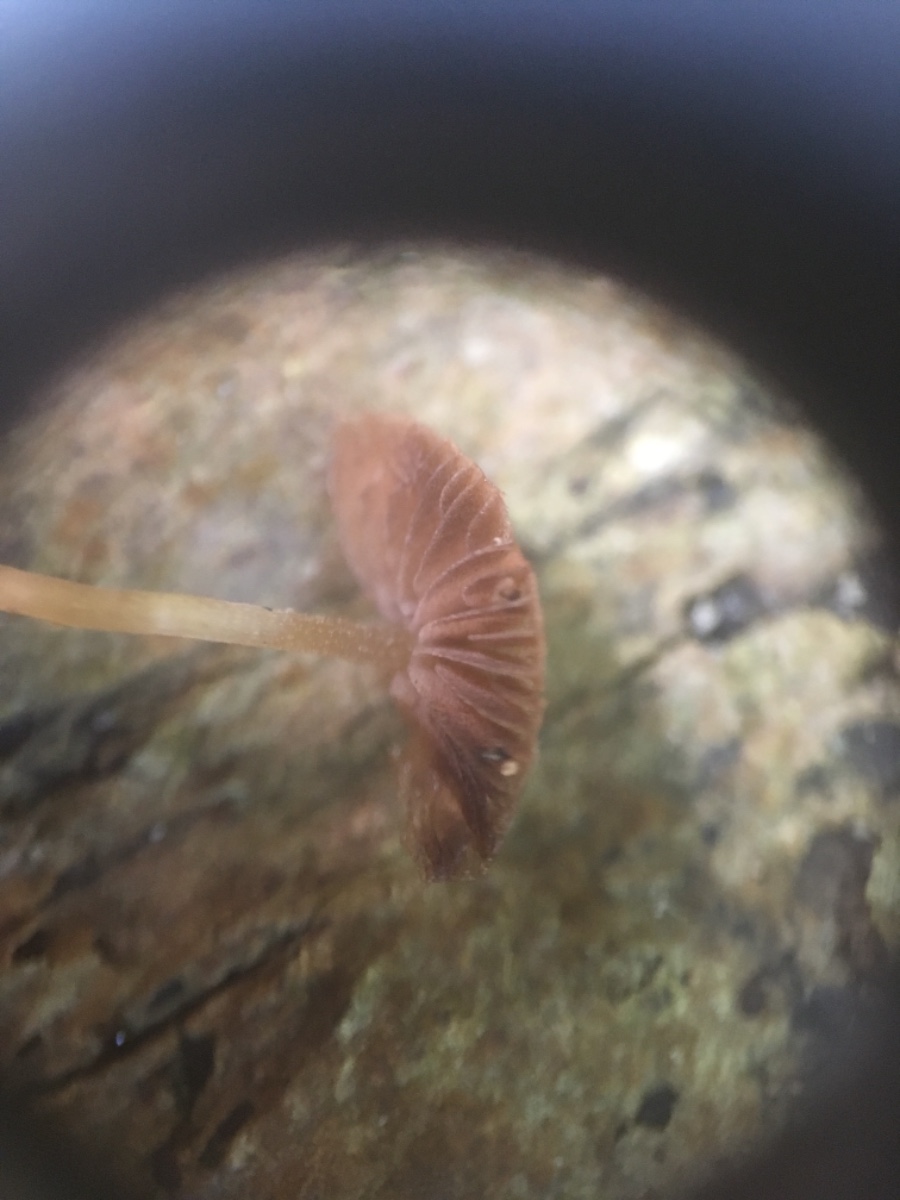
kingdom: Fungi
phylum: Basidiomycota
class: Agaricomycetes
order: Agaricales
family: Psathyrellaceae
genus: Psathyrella
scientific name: Psathyrella pygmaea
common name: dværg-mørkhat
